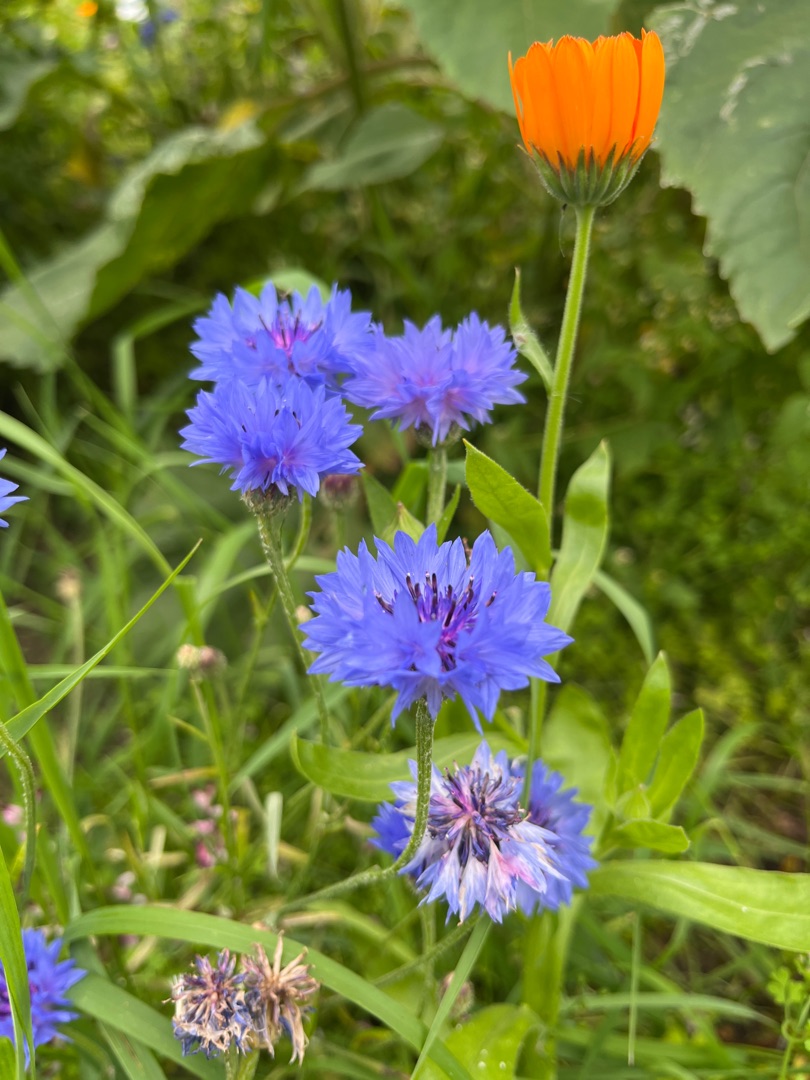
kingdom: Plantae
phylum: Tracheophyta
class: Magnoliopsida
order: Asterales
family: Asteraceae
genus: Centaurea
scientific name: Centaurea cyanus
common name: Kornblomst
